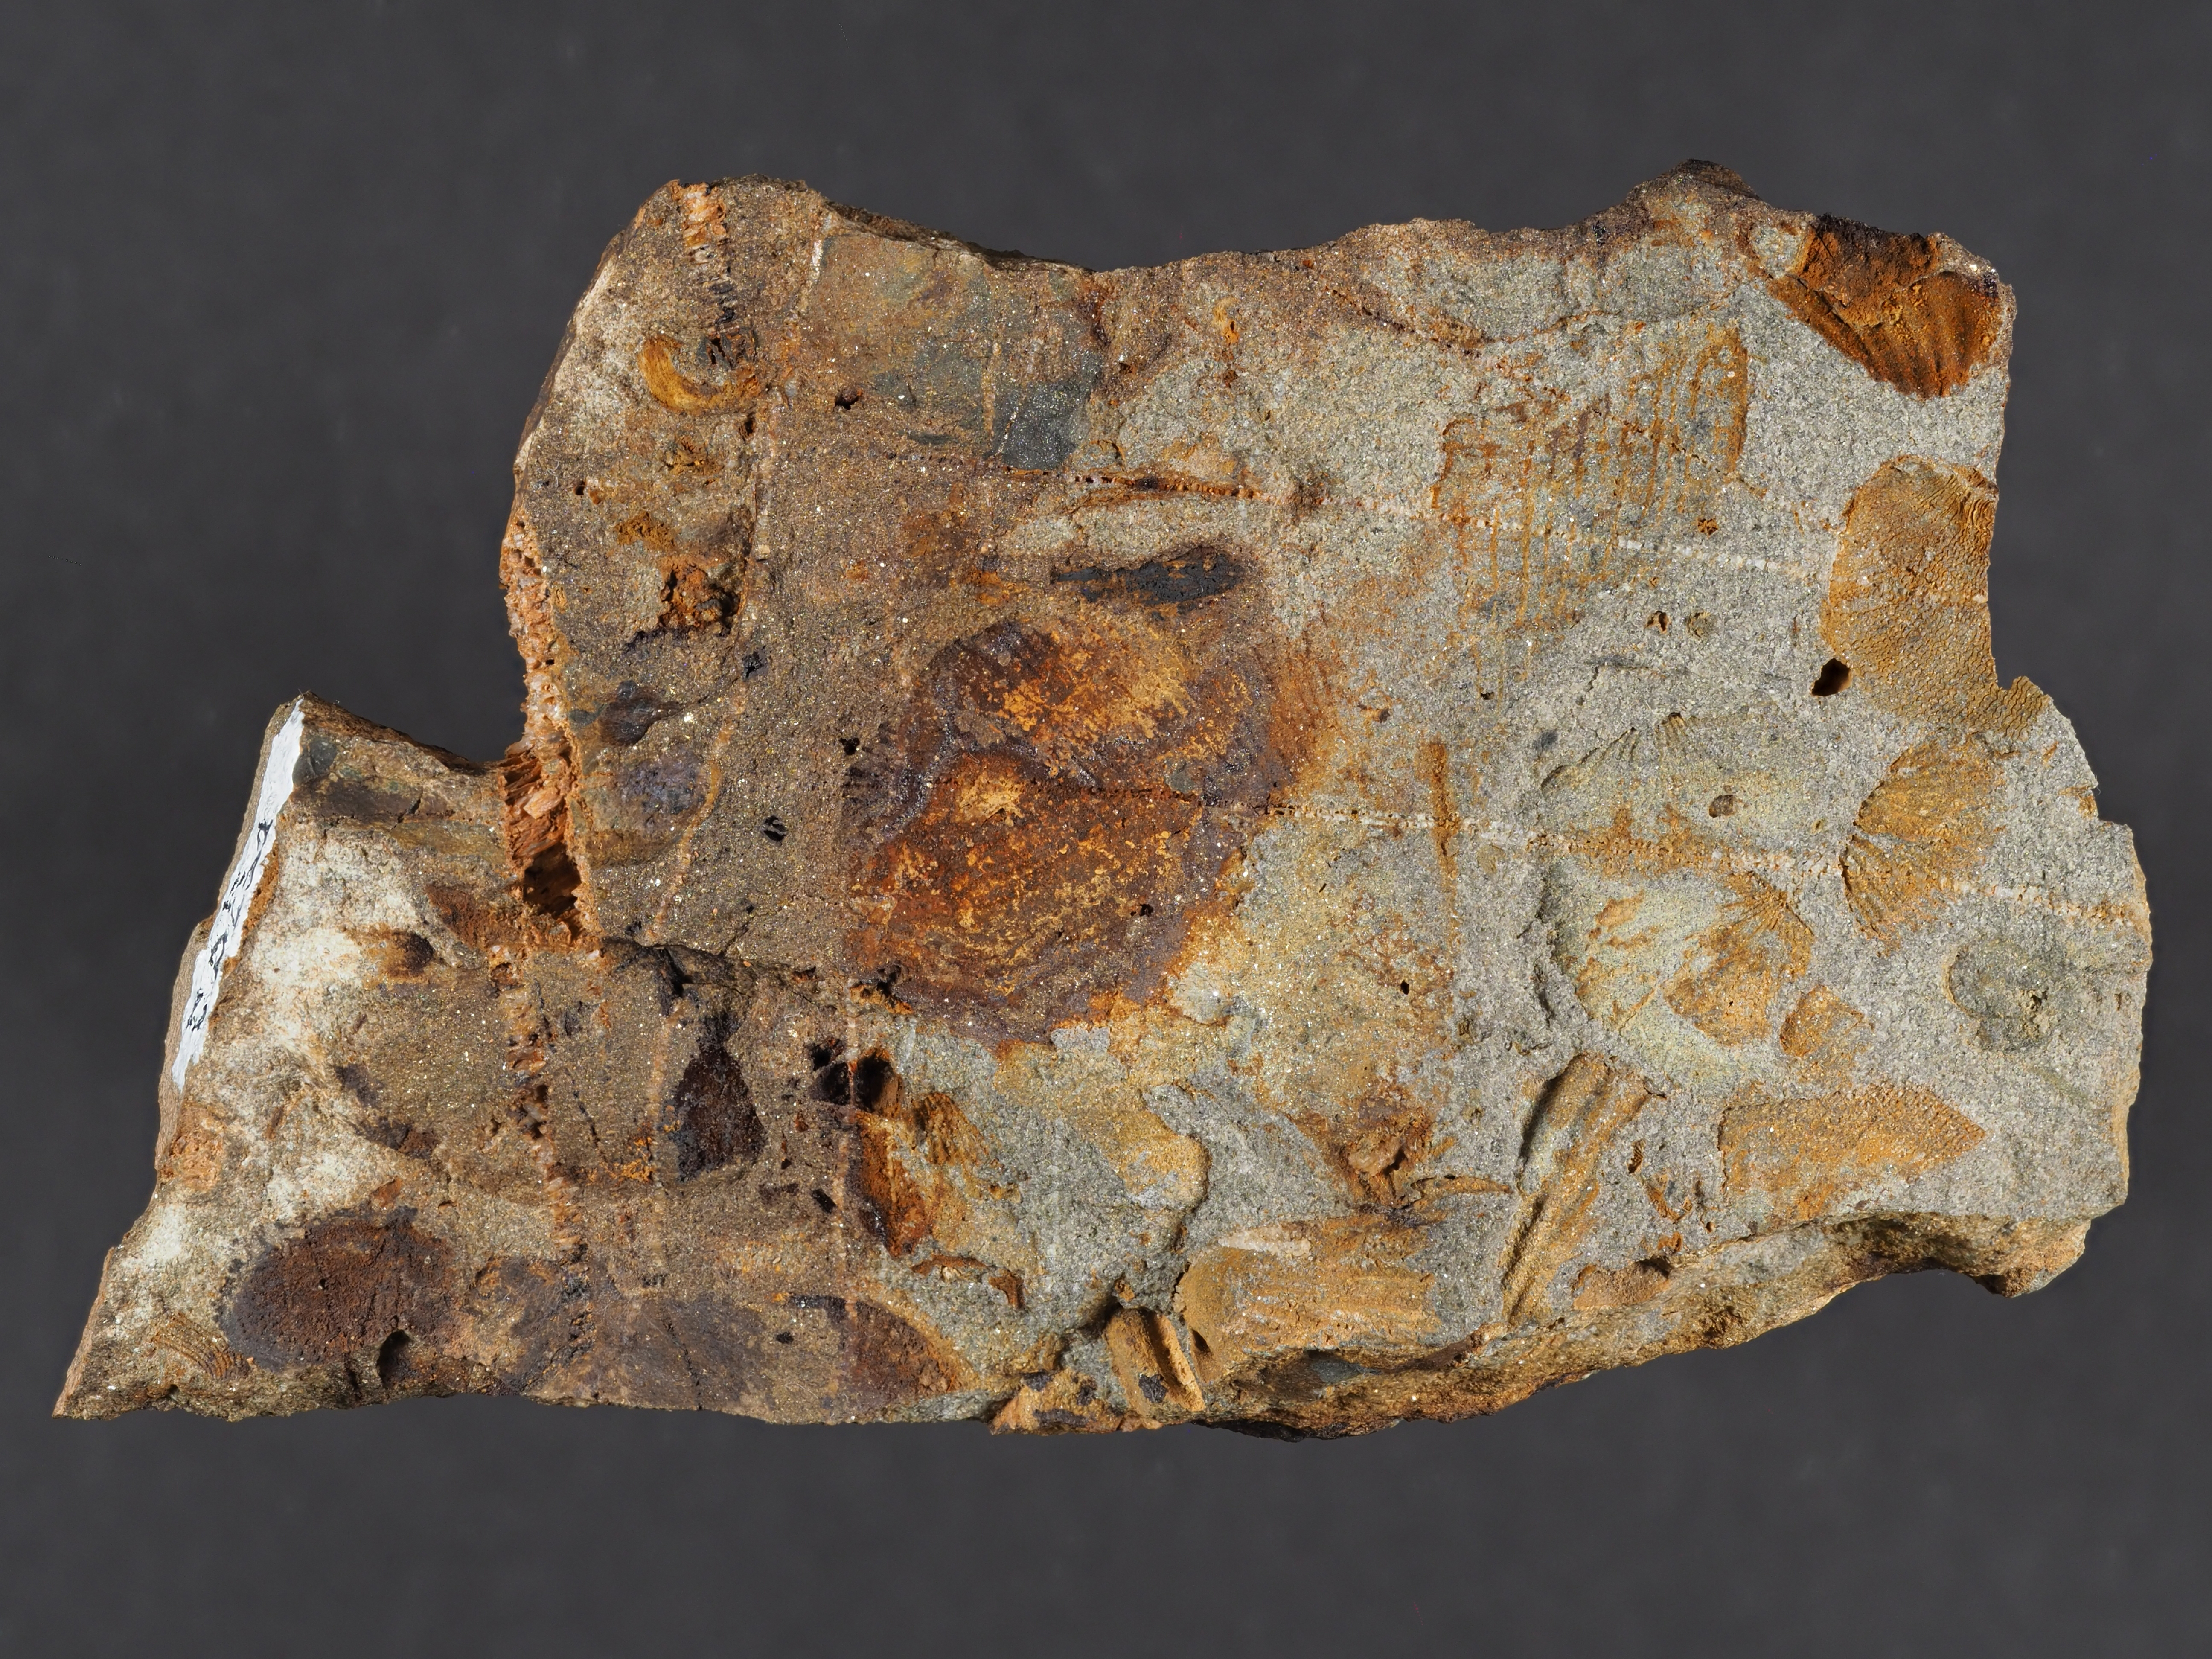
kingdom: Animalia
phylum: Mollusca
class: Bivalvia
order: Ostreida
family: Pterineidae
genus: Limoptera
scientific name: Limoptera
